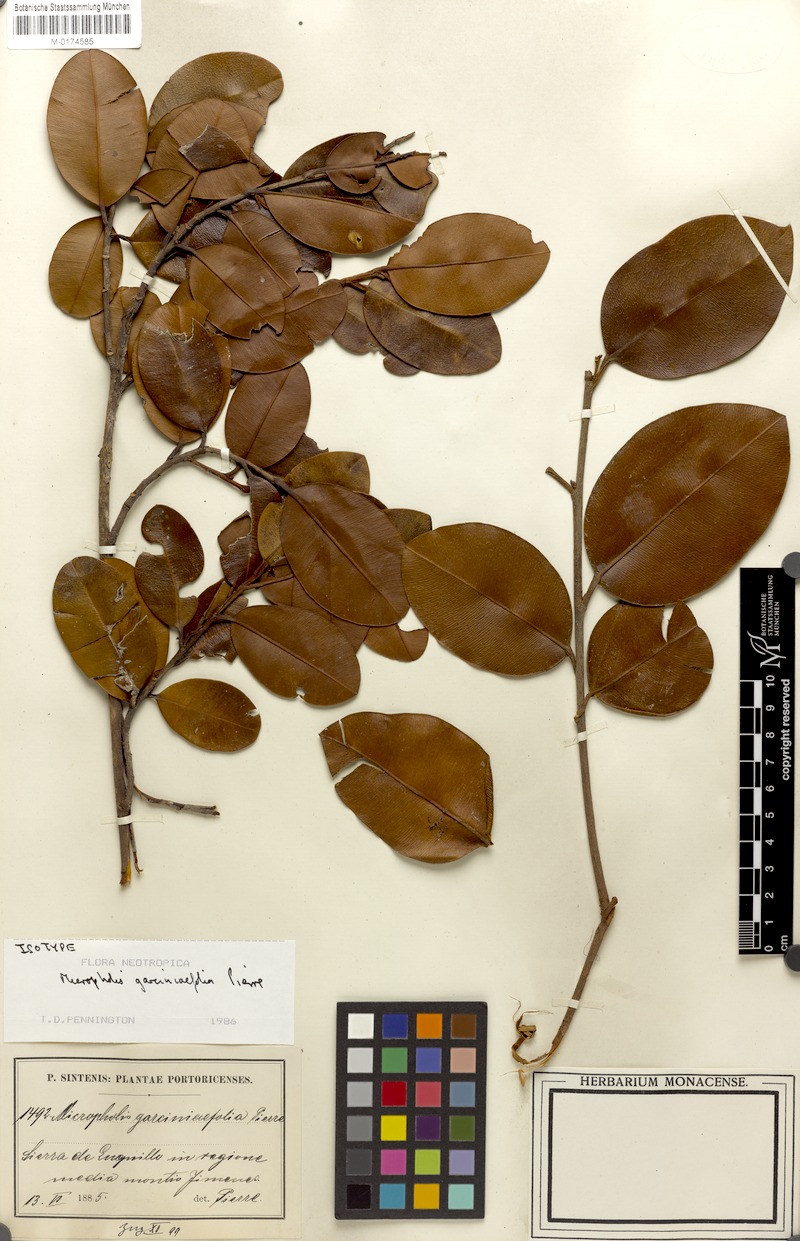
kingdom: Plantae
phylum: Tracheophyta
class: Magnoliopsida
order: Ericales
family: Sapotaceae
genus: Micropholis
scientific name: Micropholis garciniifolia
